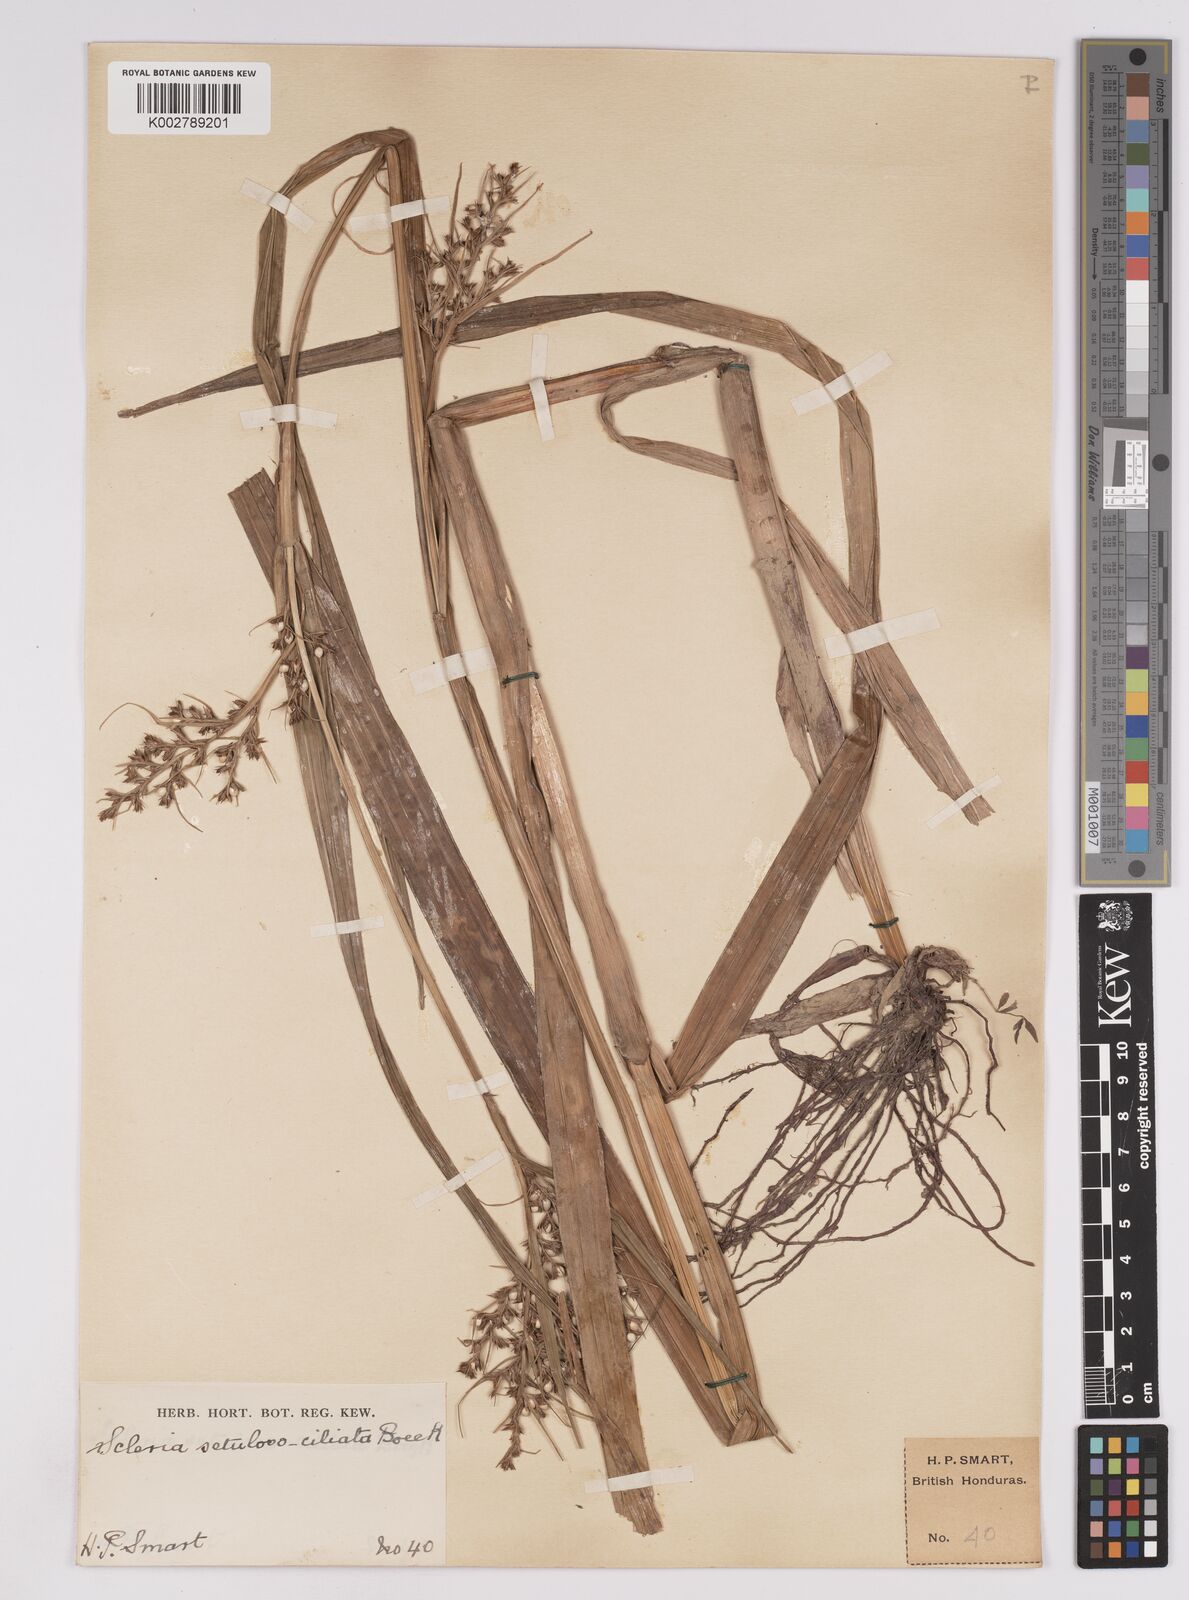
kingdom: Plantae
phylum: Tracheophyta
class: Liliopsida
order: Poales
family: Cyperaceae
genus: Scleria
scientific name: Scleria dregeana
